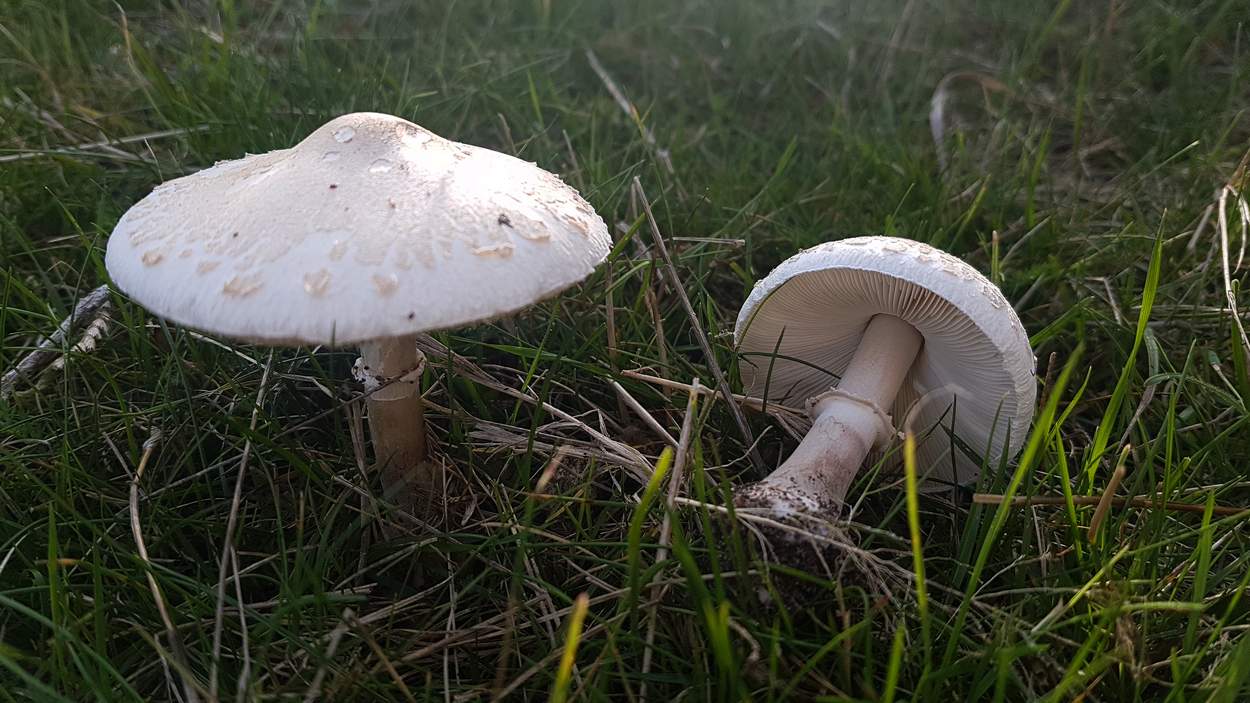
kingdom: Fungi
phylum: Basidiomycota
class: Agaricomycetes
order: Agaricales
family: Agaricaceae
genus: Macrolepiota
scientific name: Macrolepiota excoriata
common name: mark-kæmpeparasolhat
